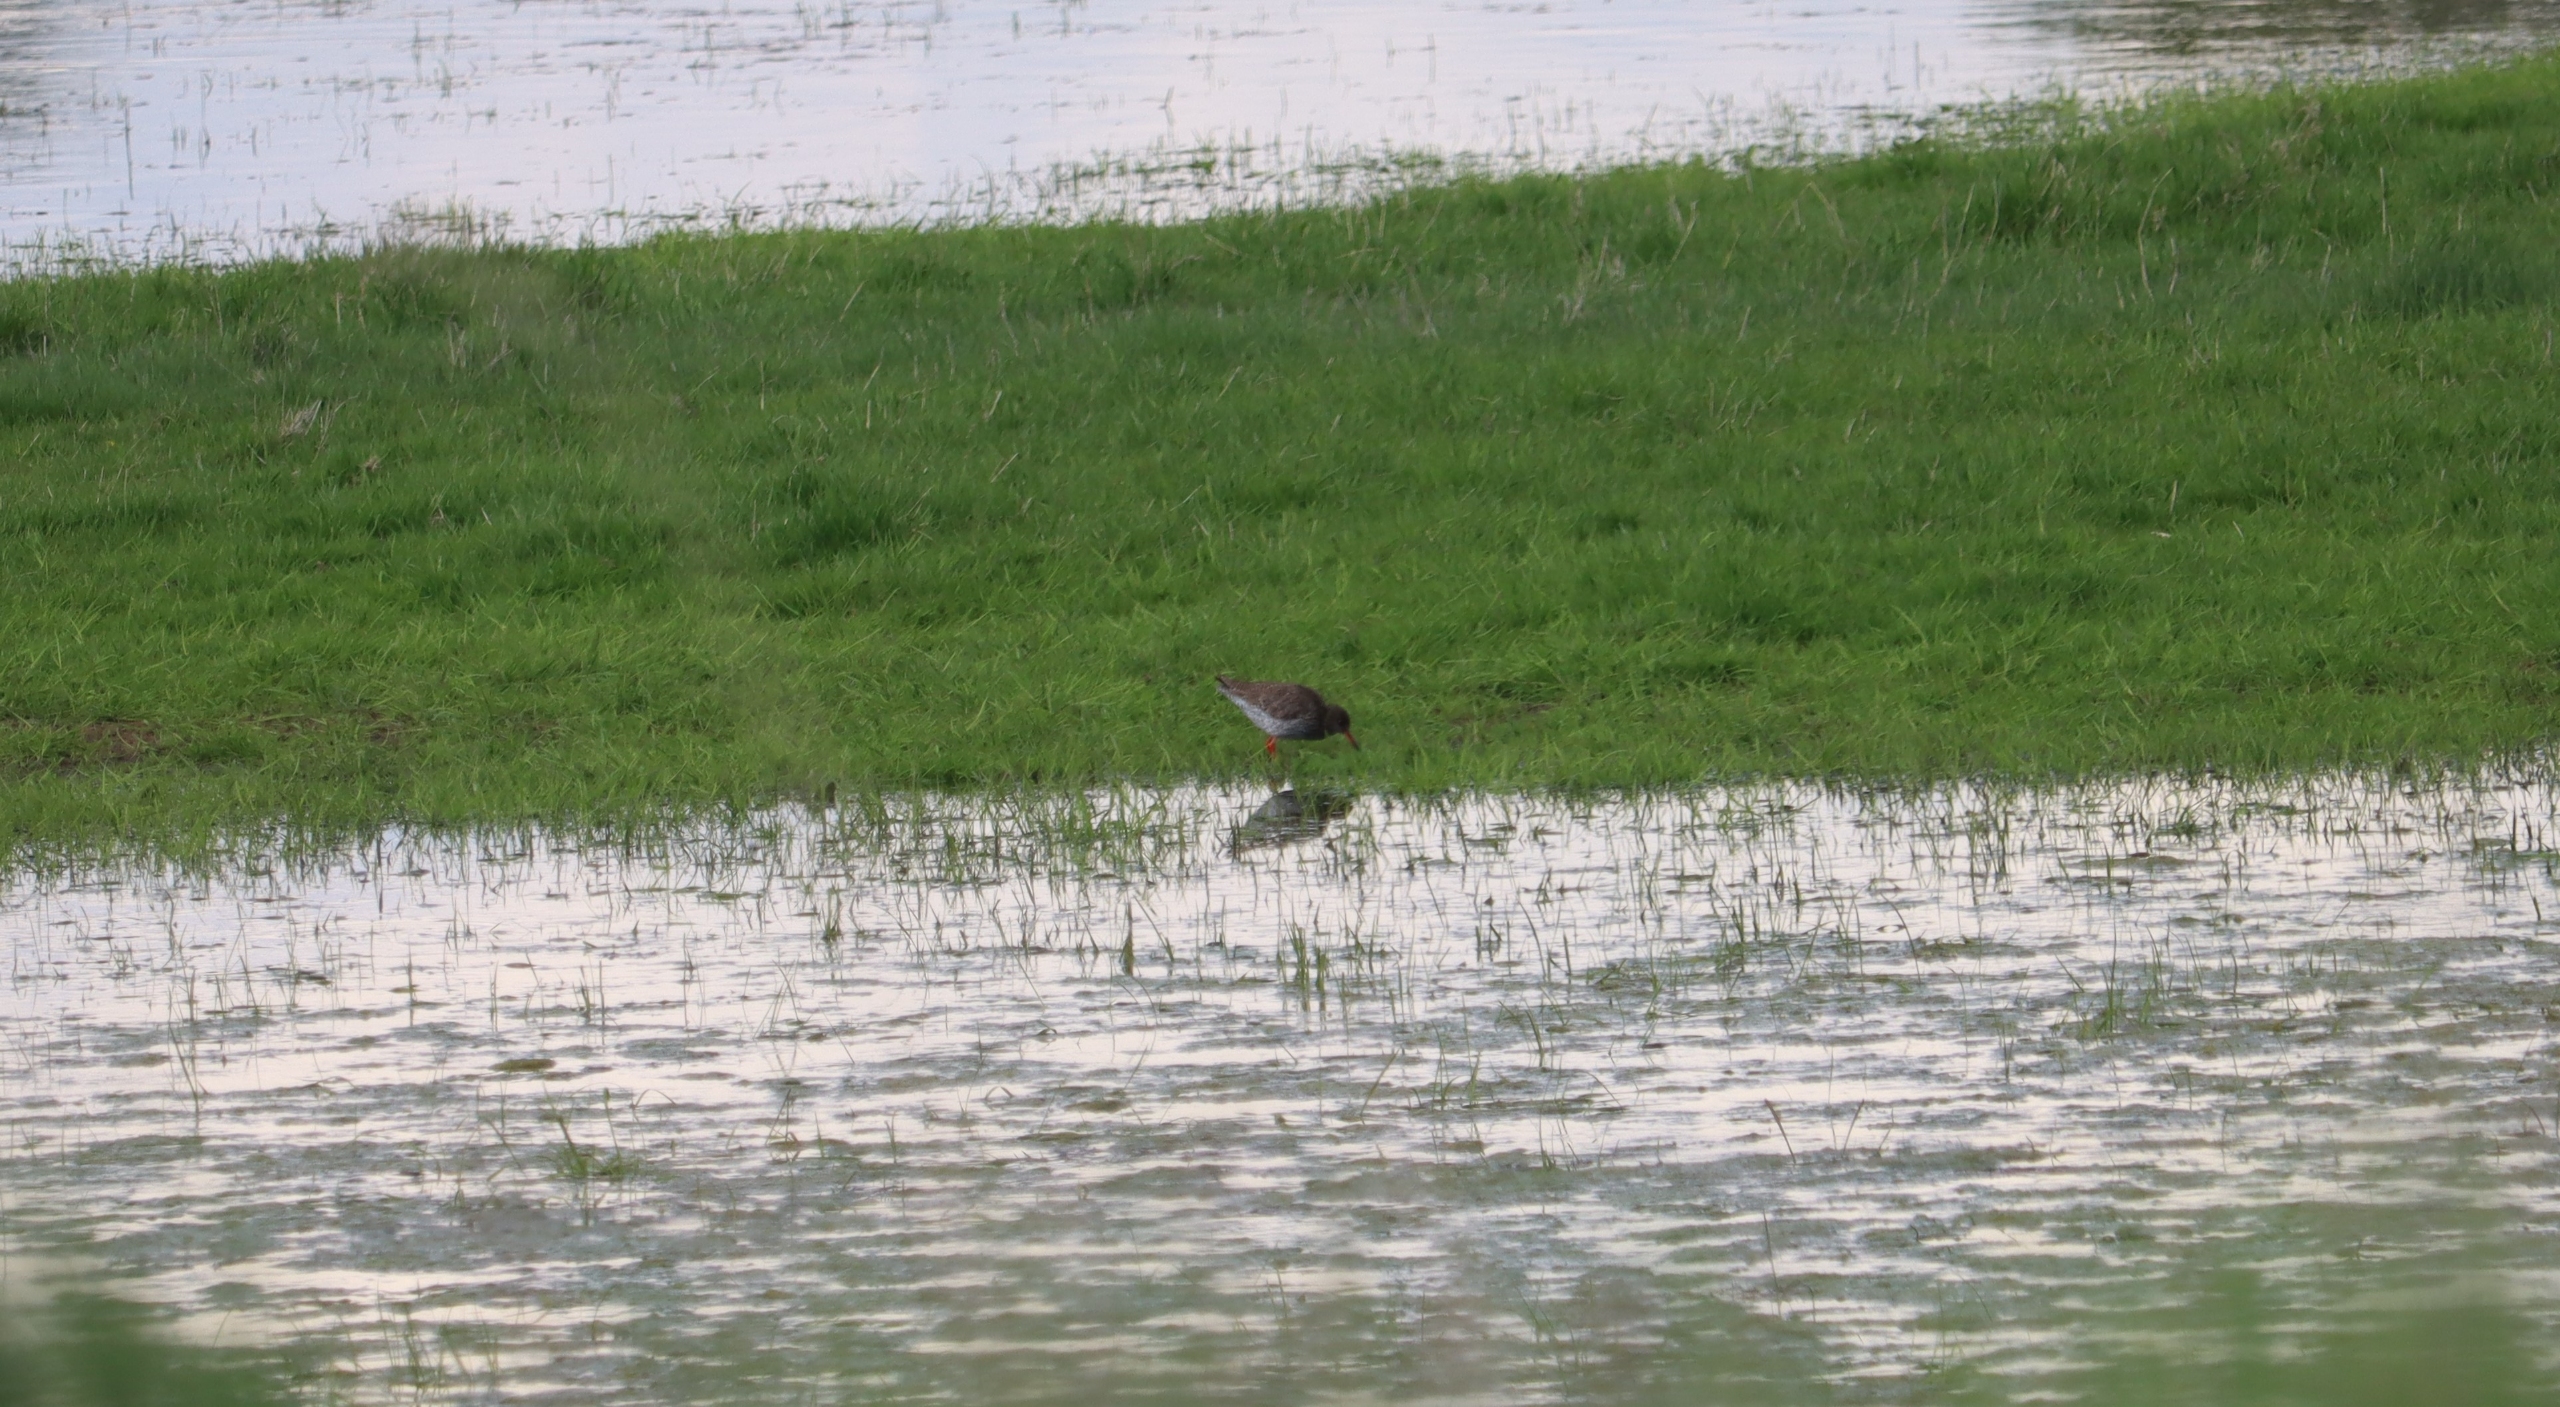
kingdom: Animalia
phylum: Chordata
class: Aves
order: Charadriiformes
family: Scolopacidae
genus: Tringa
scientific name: Tringa totanus
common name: Rødben
